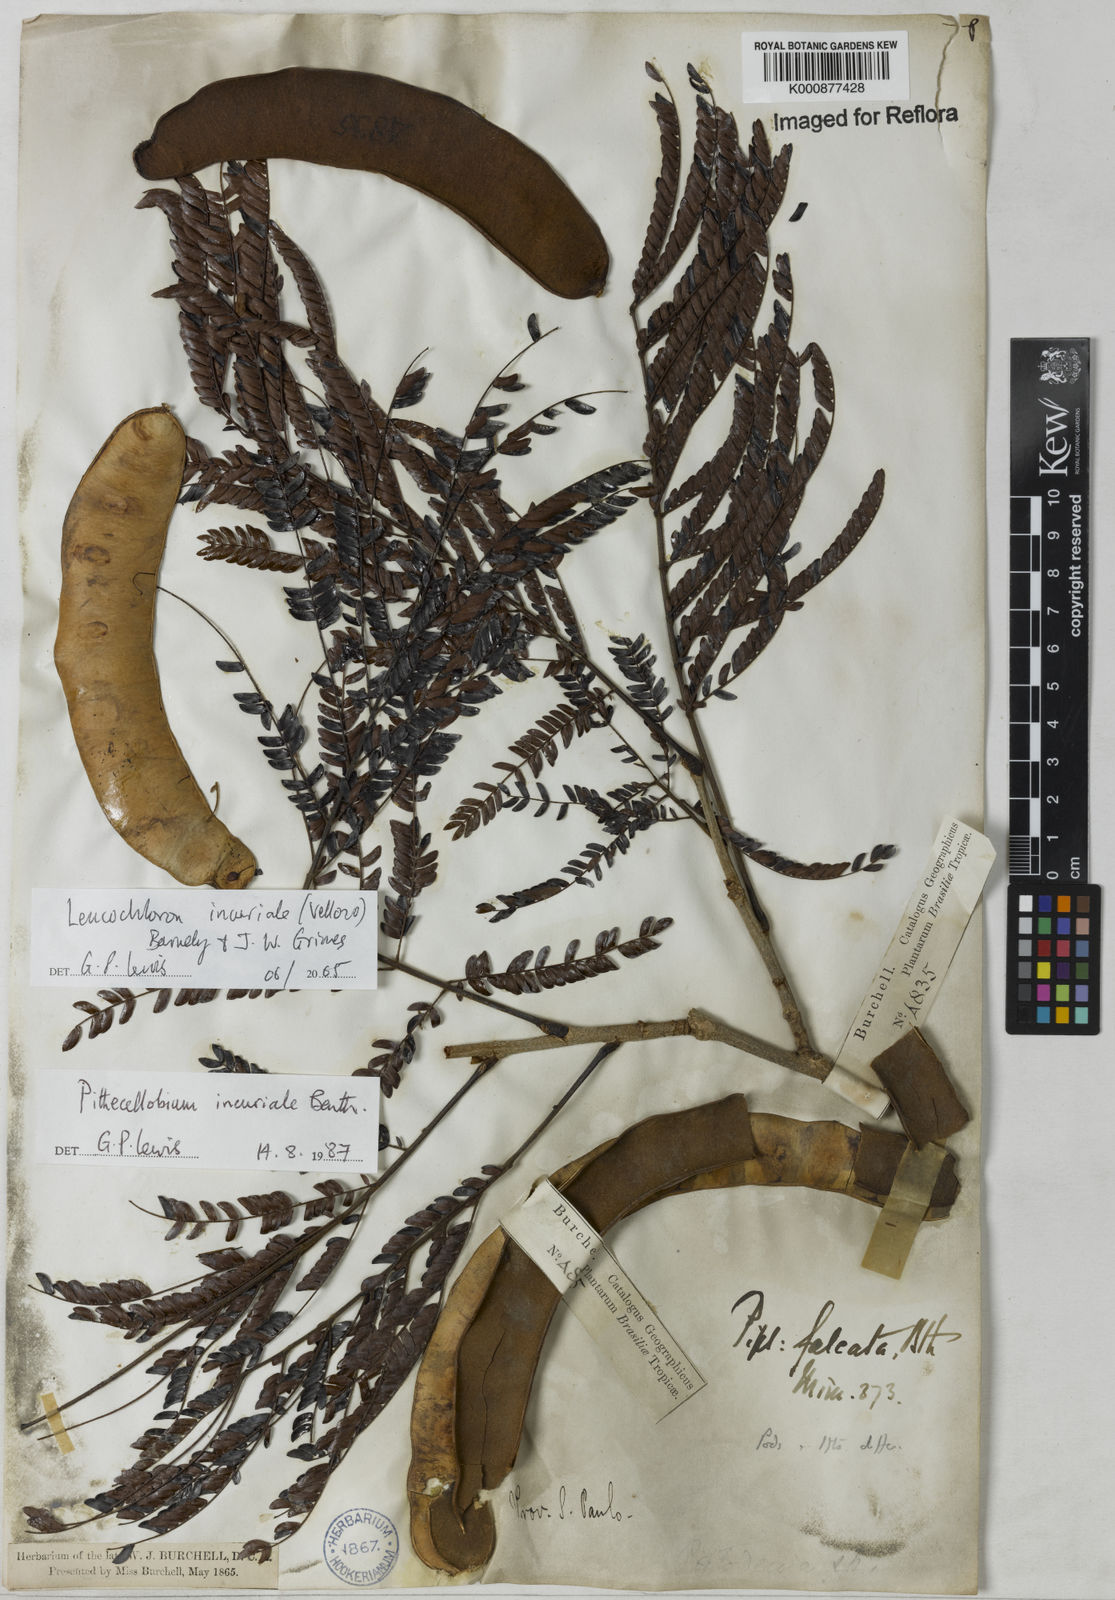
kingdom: Plantae
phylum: Tracheophyta
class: Magnoliopsida
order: Fabales
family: Fabaceae
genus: Leucochloron
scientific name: Leucochloron incuriale
